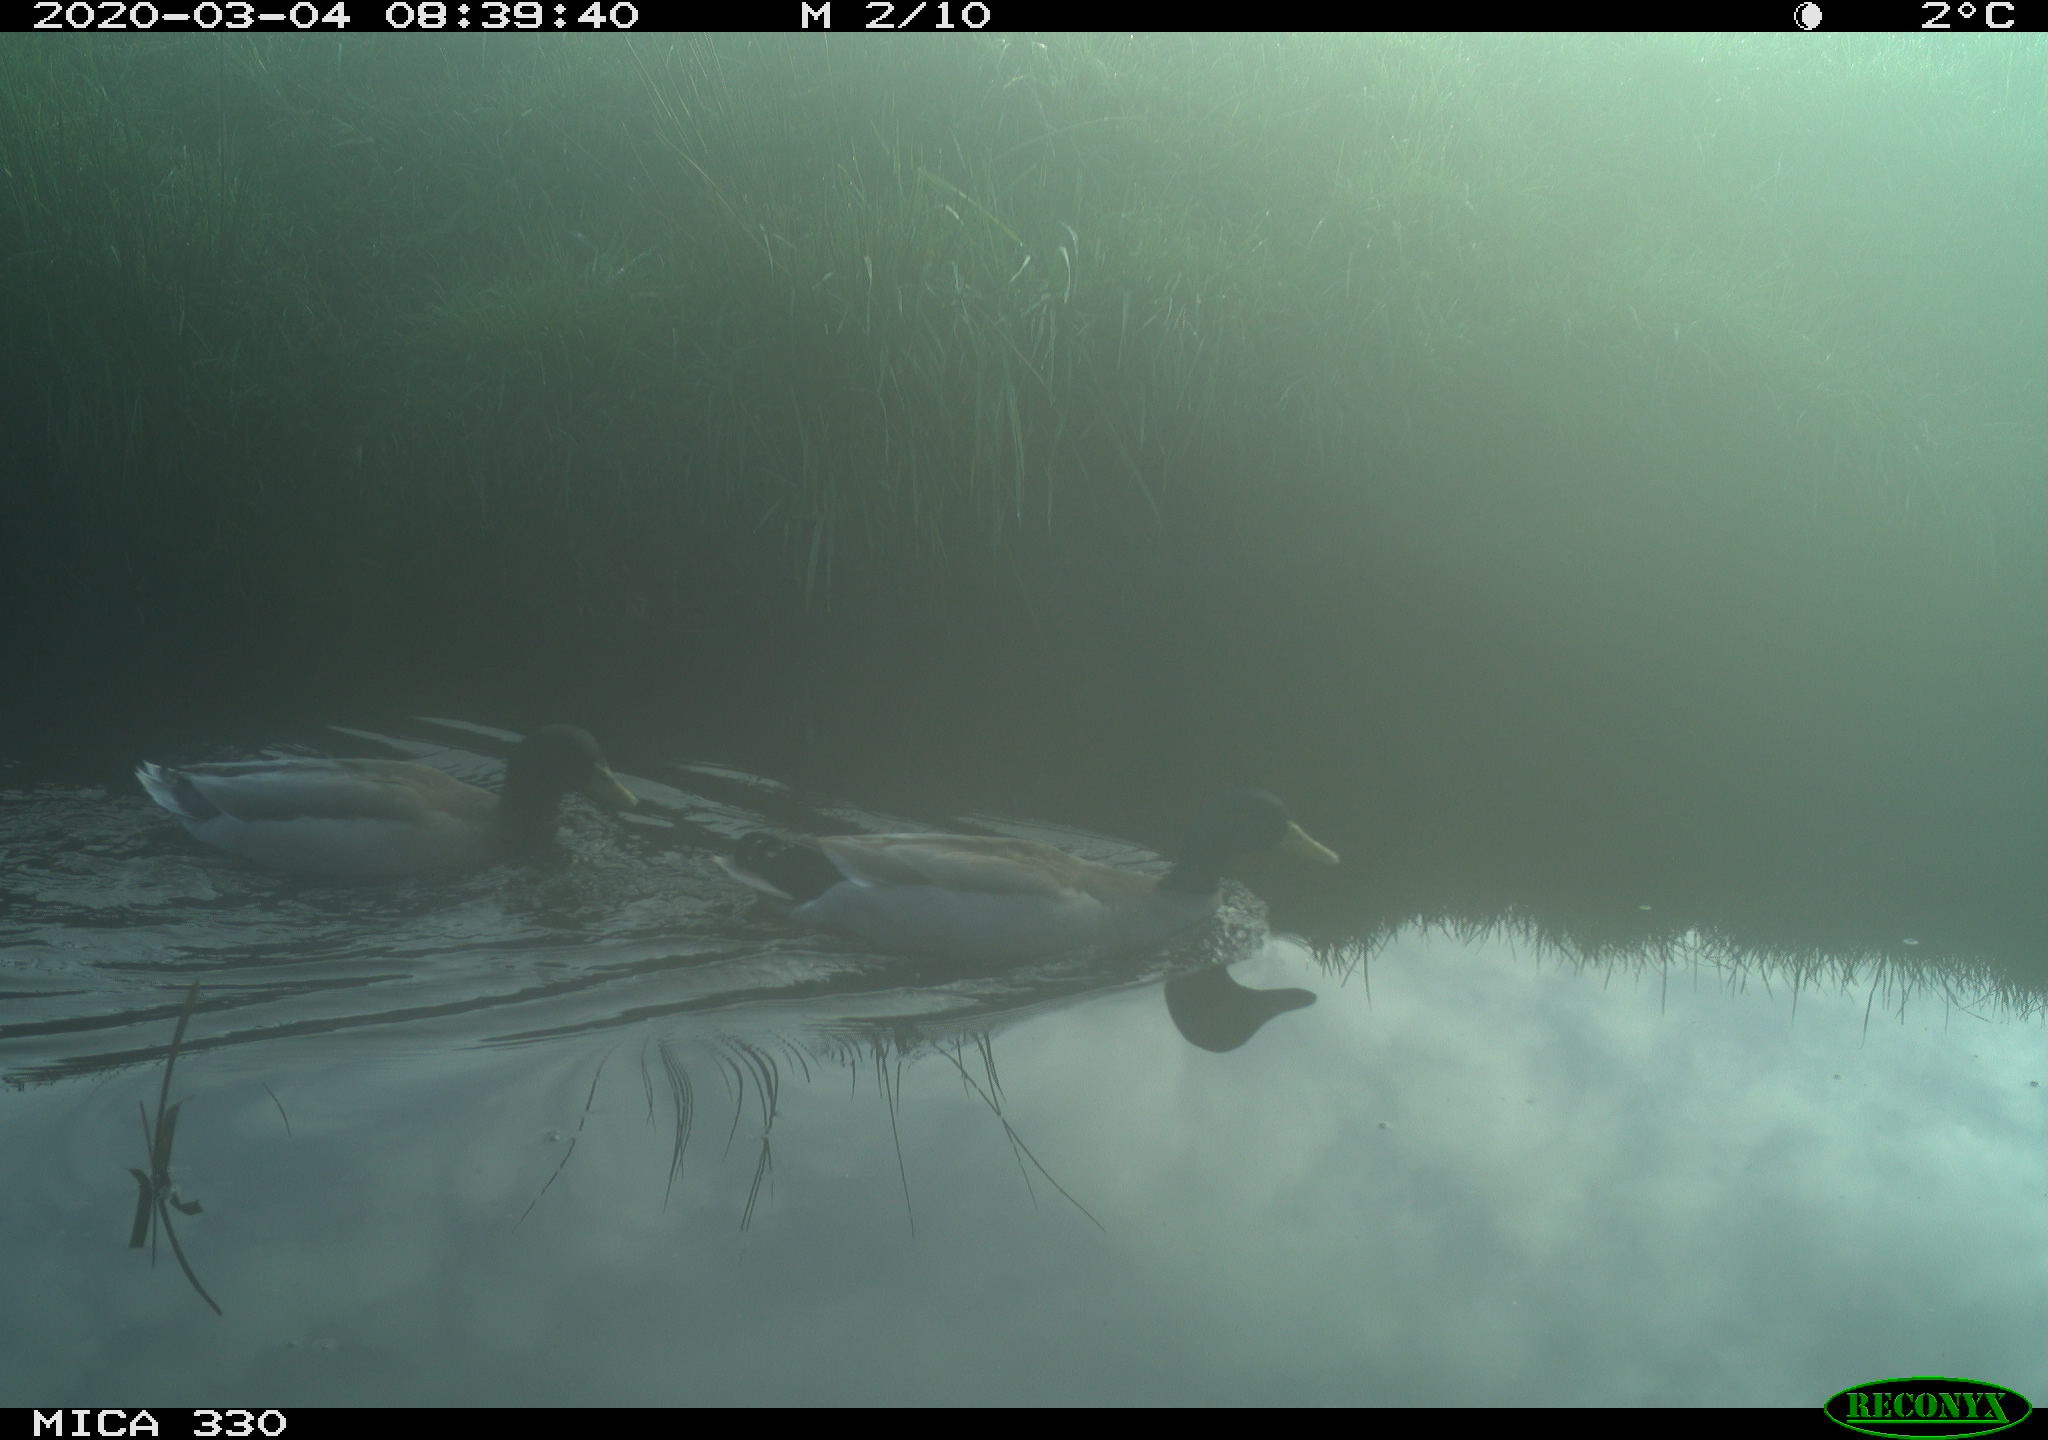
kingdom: Animalia
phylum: Chordata
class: Aves
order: Anseriformes
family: Anatidae
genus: Anas
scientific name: Anas platyrhynchos
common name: Mallard
